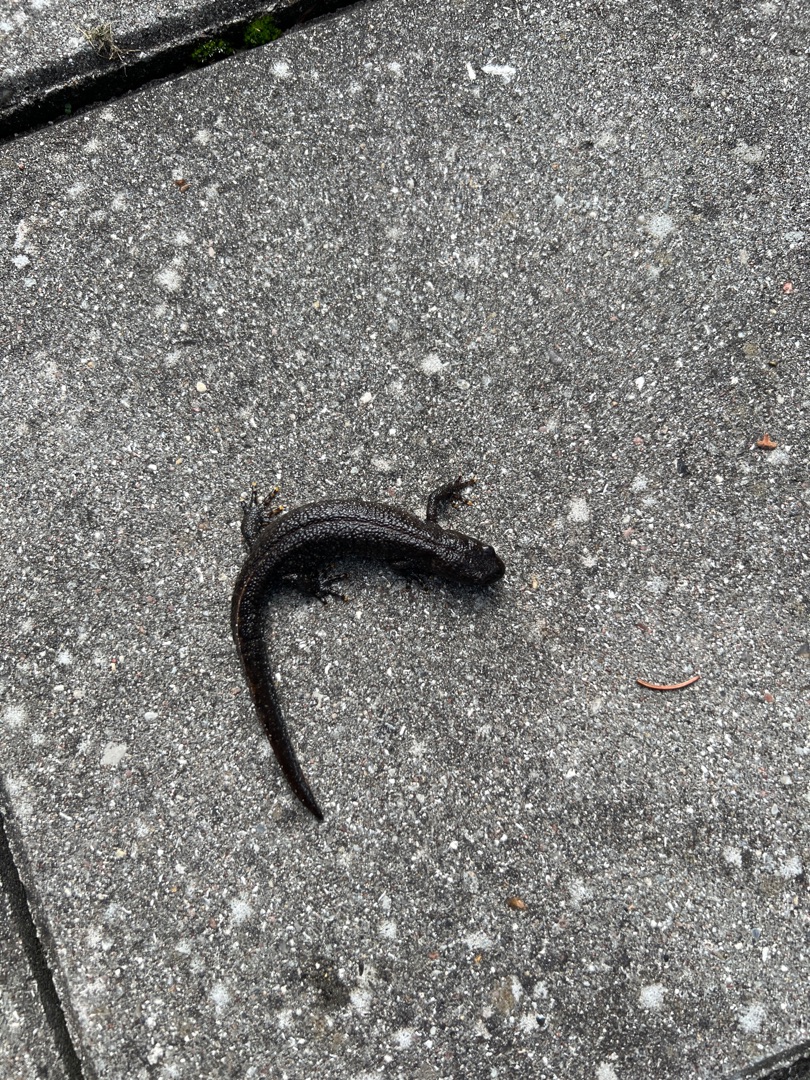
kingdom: Animalia
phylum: Chordata
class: Amphibia
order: Caudata
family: Salamandridae
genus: Triturus
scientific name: Triturus cristatus
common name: Stor vandsalamander
